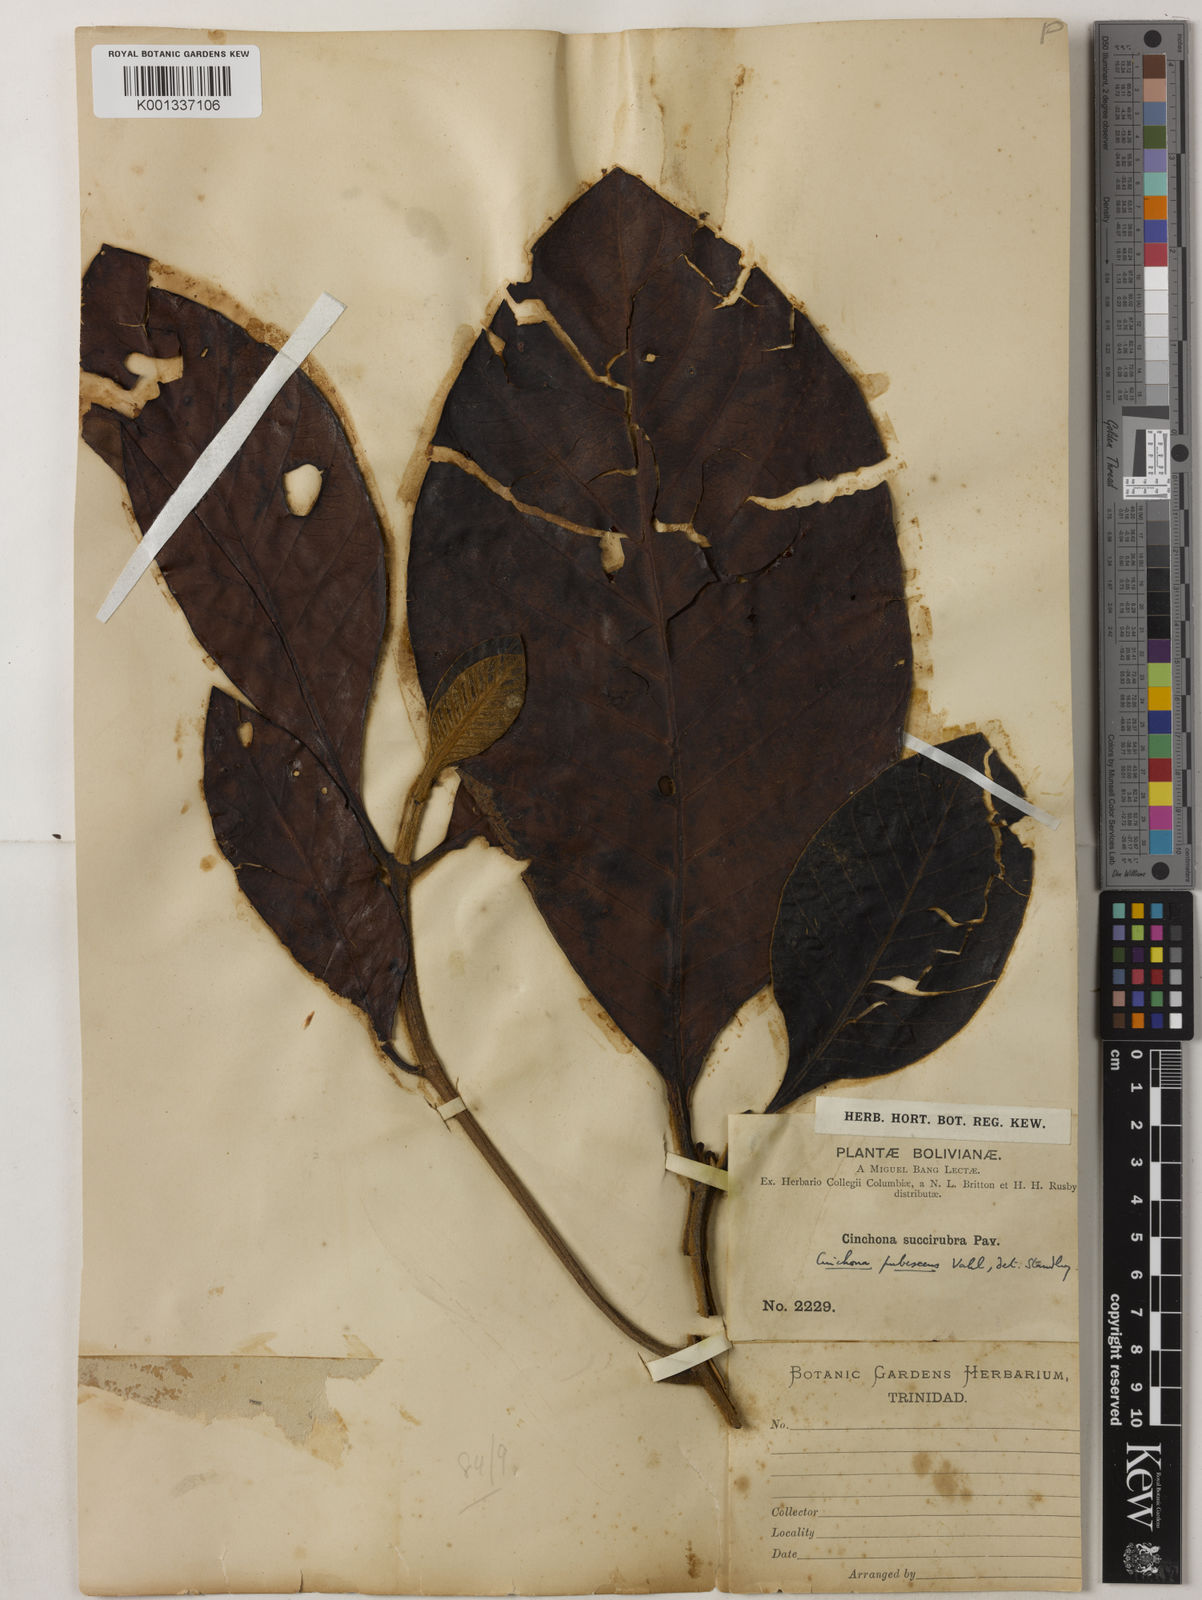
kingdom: Plantae
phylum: Tracheophyta
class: Magnoliopsida
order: Gentianales
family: Rubiaceae
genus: Cinchona
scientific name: Cinchona pubescens
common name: Quinine
